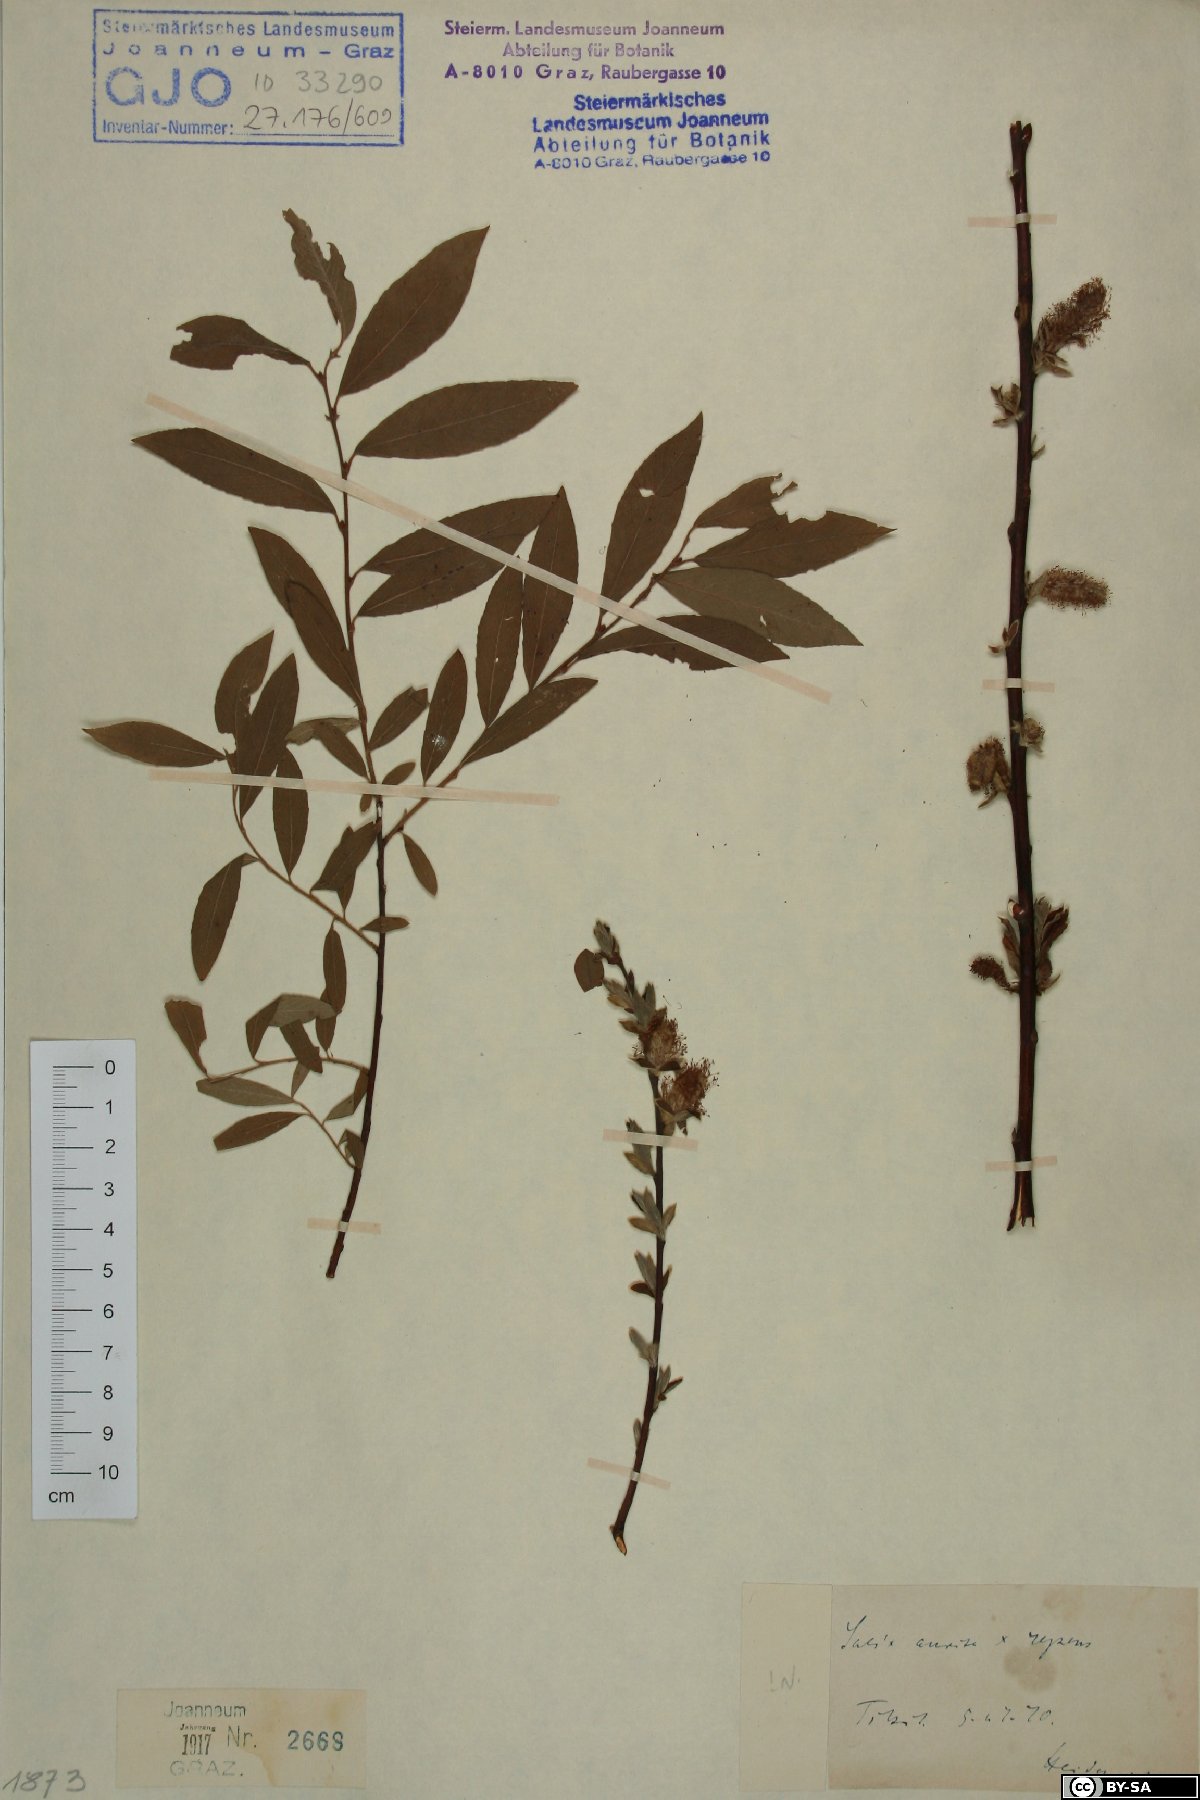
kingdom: Plantae
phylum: Tracheophyta
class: Magnoliopsida
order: Malpighiales
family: Salicaceae
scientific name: Salicaceae
